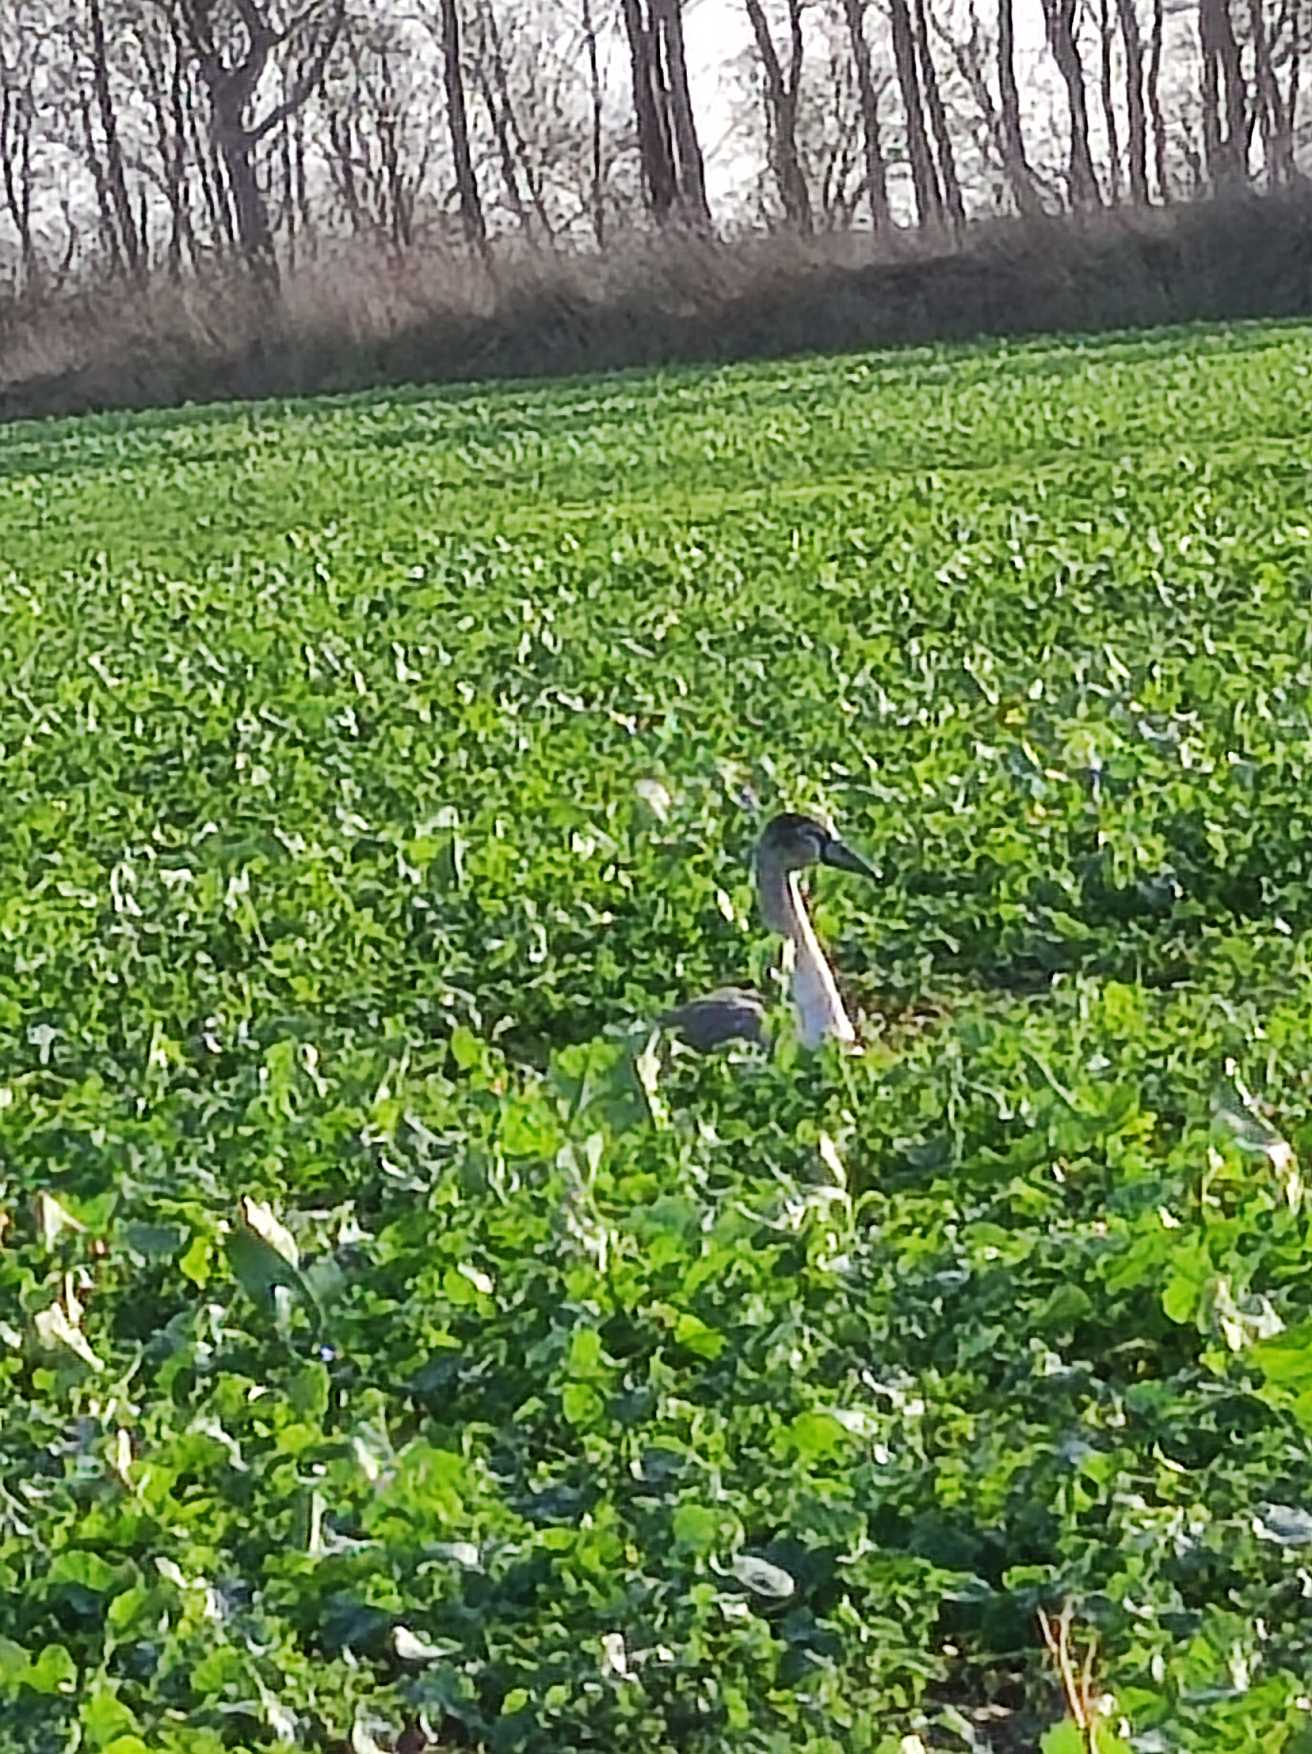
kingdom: Animalia
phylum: Chordata
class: Aves
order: Anseriformes
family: Anatidae
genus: Cygnus
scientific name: Cygnus olor
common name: Knopsvane
